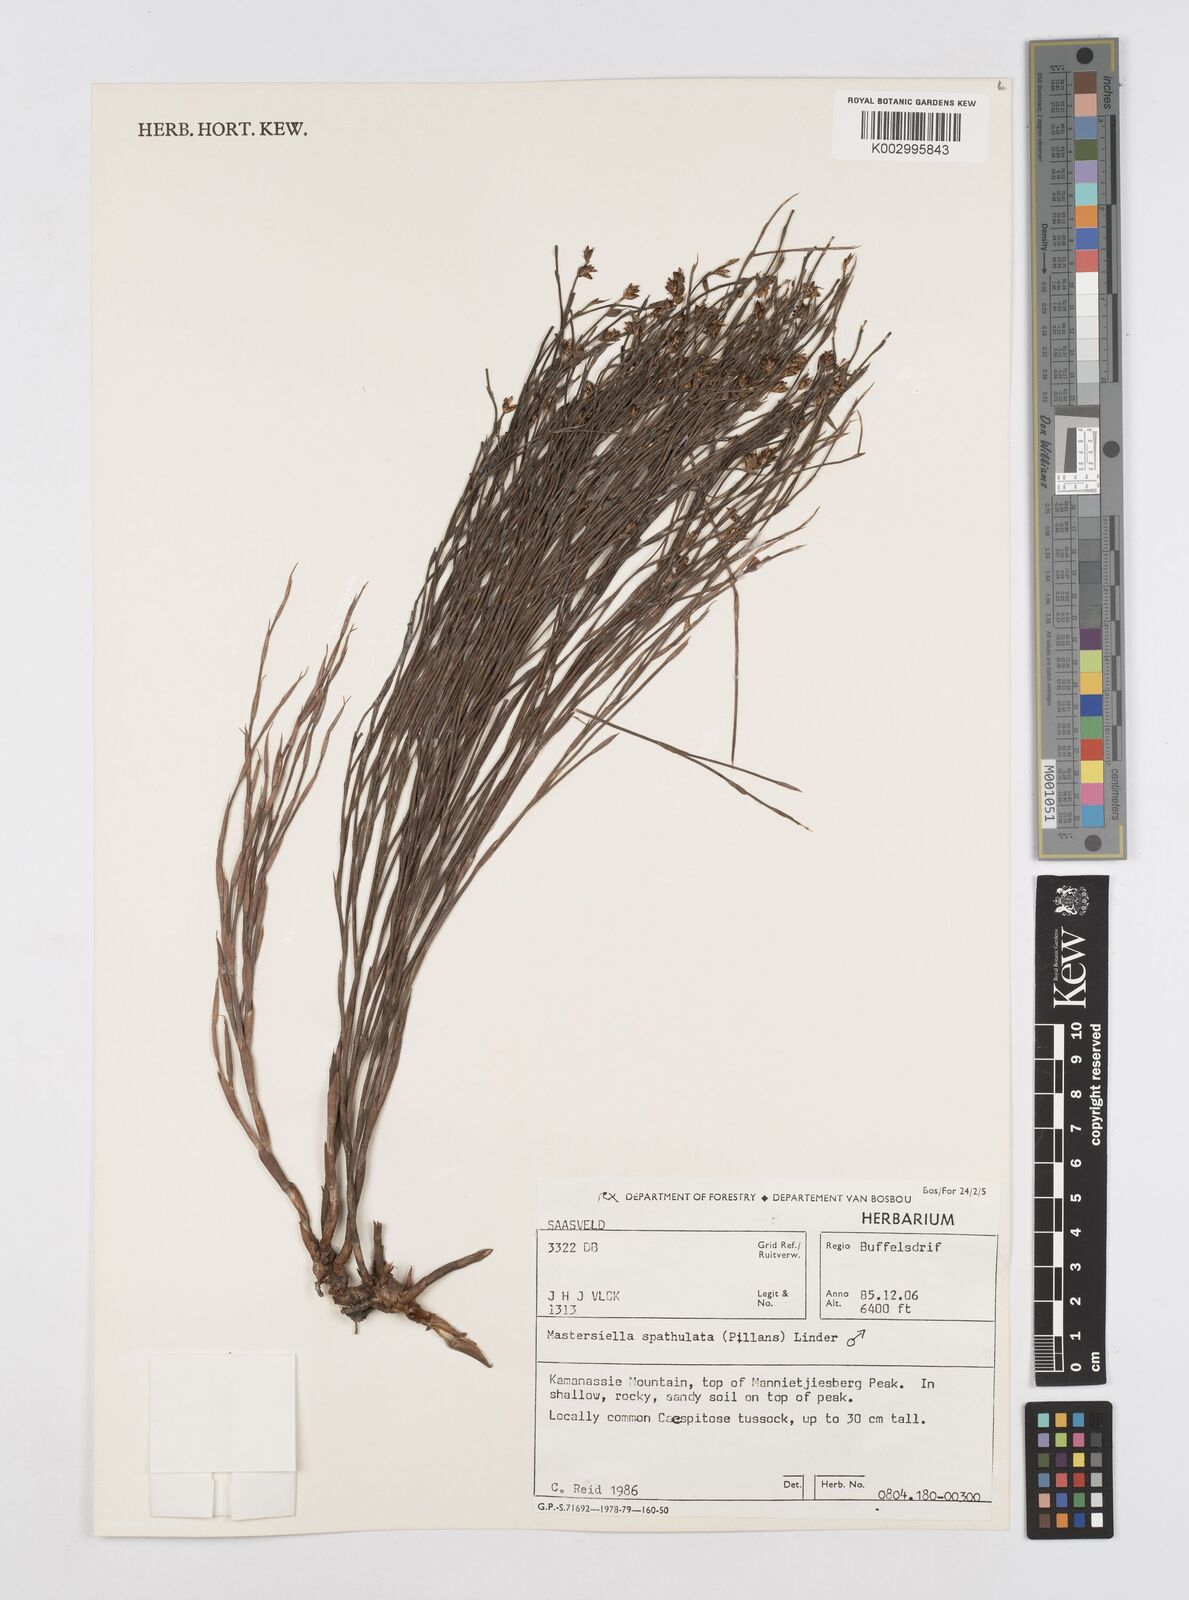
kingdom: Plantae
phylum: Tracheophyta
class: Liliopsida
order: Poales
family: Restionaceae
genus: Mastersiella
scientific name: Mastersiella spathulata
